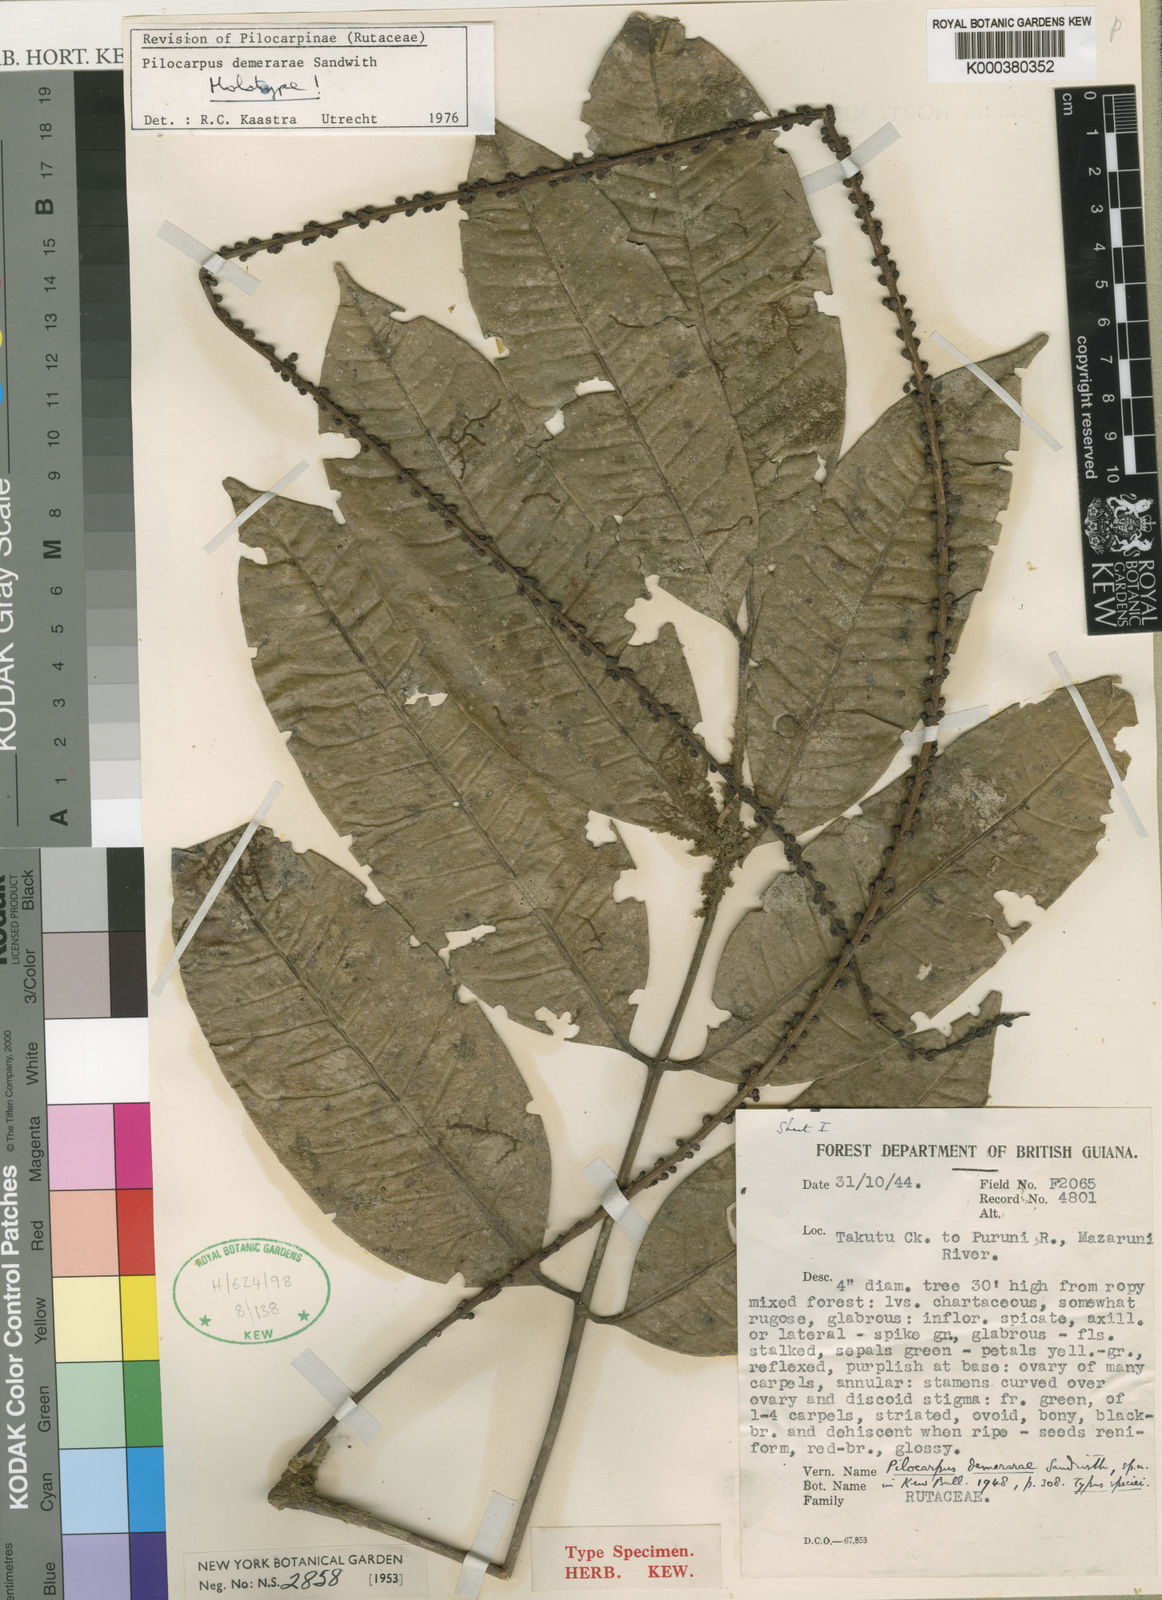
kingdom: Plantae
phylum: Tracheophyta
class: Magnoliopsida
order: Sapindales
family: Rutaceae
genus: Pilocarpus
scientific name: Pilocarpus demerarae
